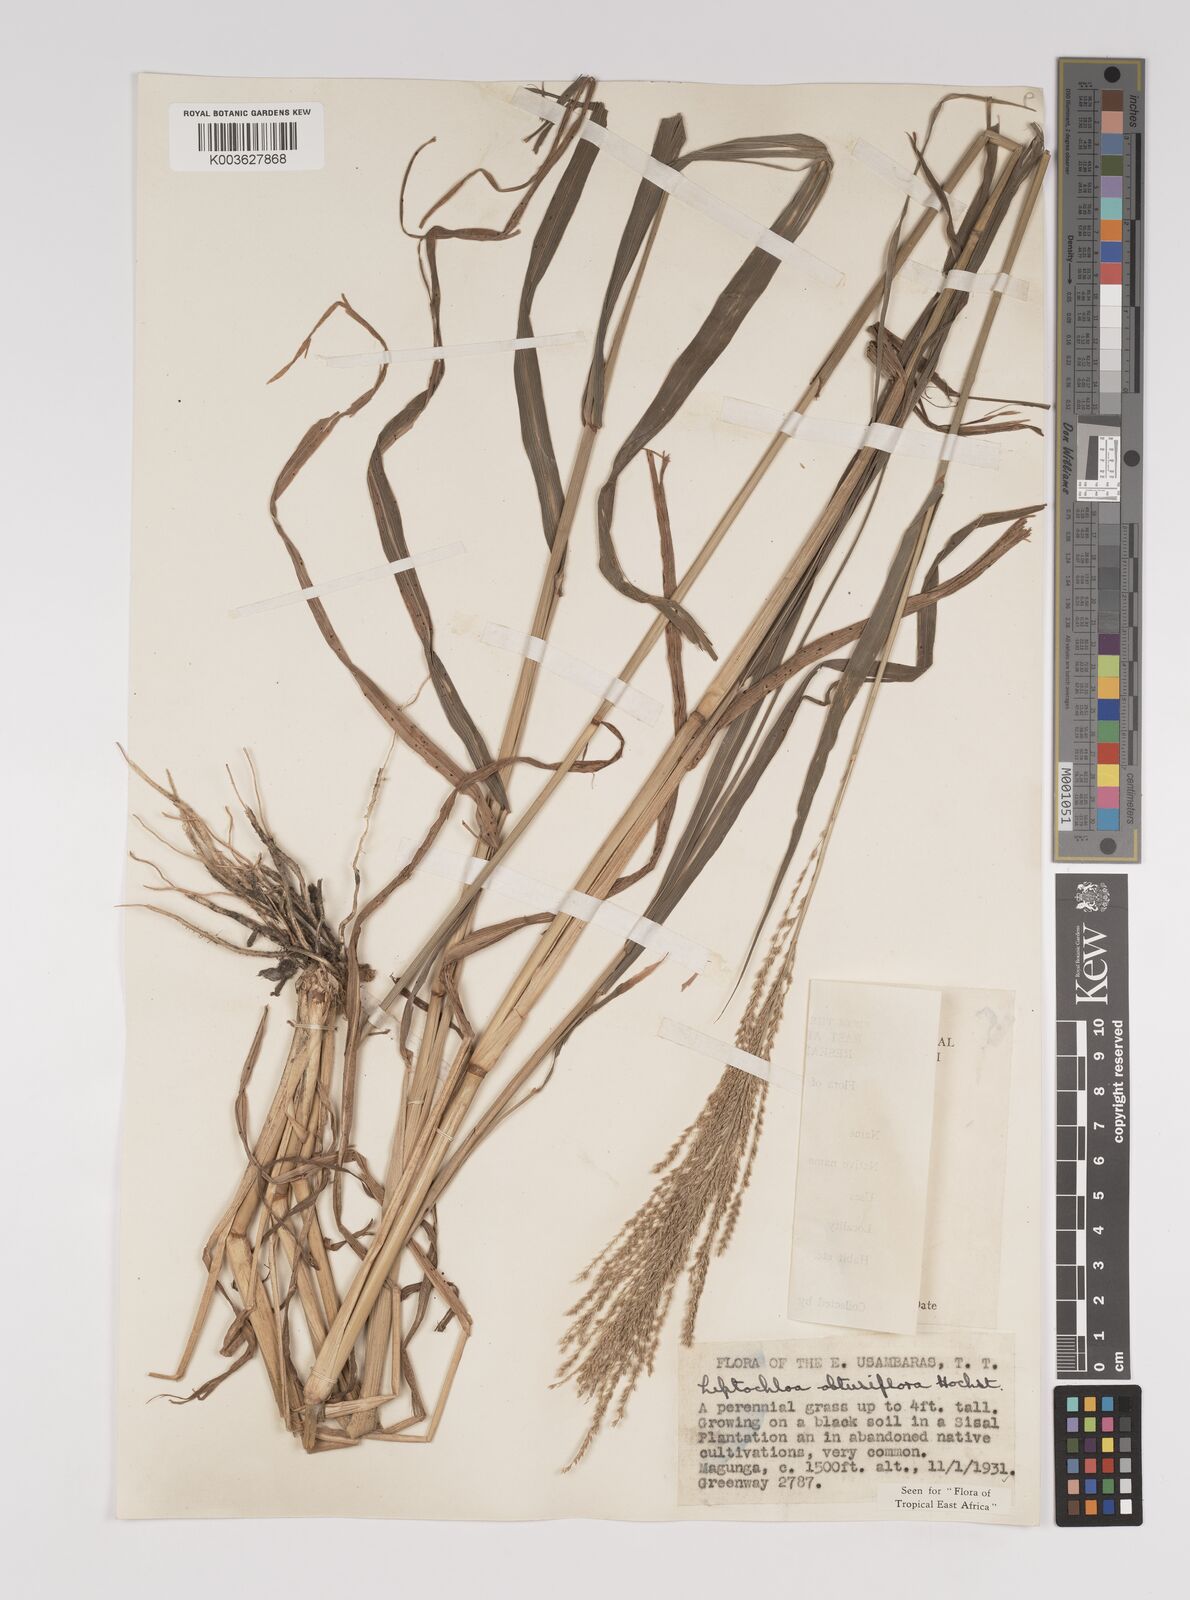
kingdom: Plantae
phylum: Tracheophyta
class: Liliopsida
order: Poales
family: Poaceae
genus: Disakisperma
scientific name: Disakisperma obtusiflorum
